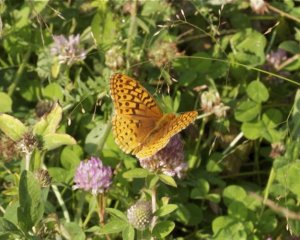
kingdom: Animalia
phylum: Arthropoda
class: Insecta
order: Lepidoptera
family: Nymphalidae
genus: Speyeria
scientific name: Speyeria cybele
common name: Great Spangled Fritillary
